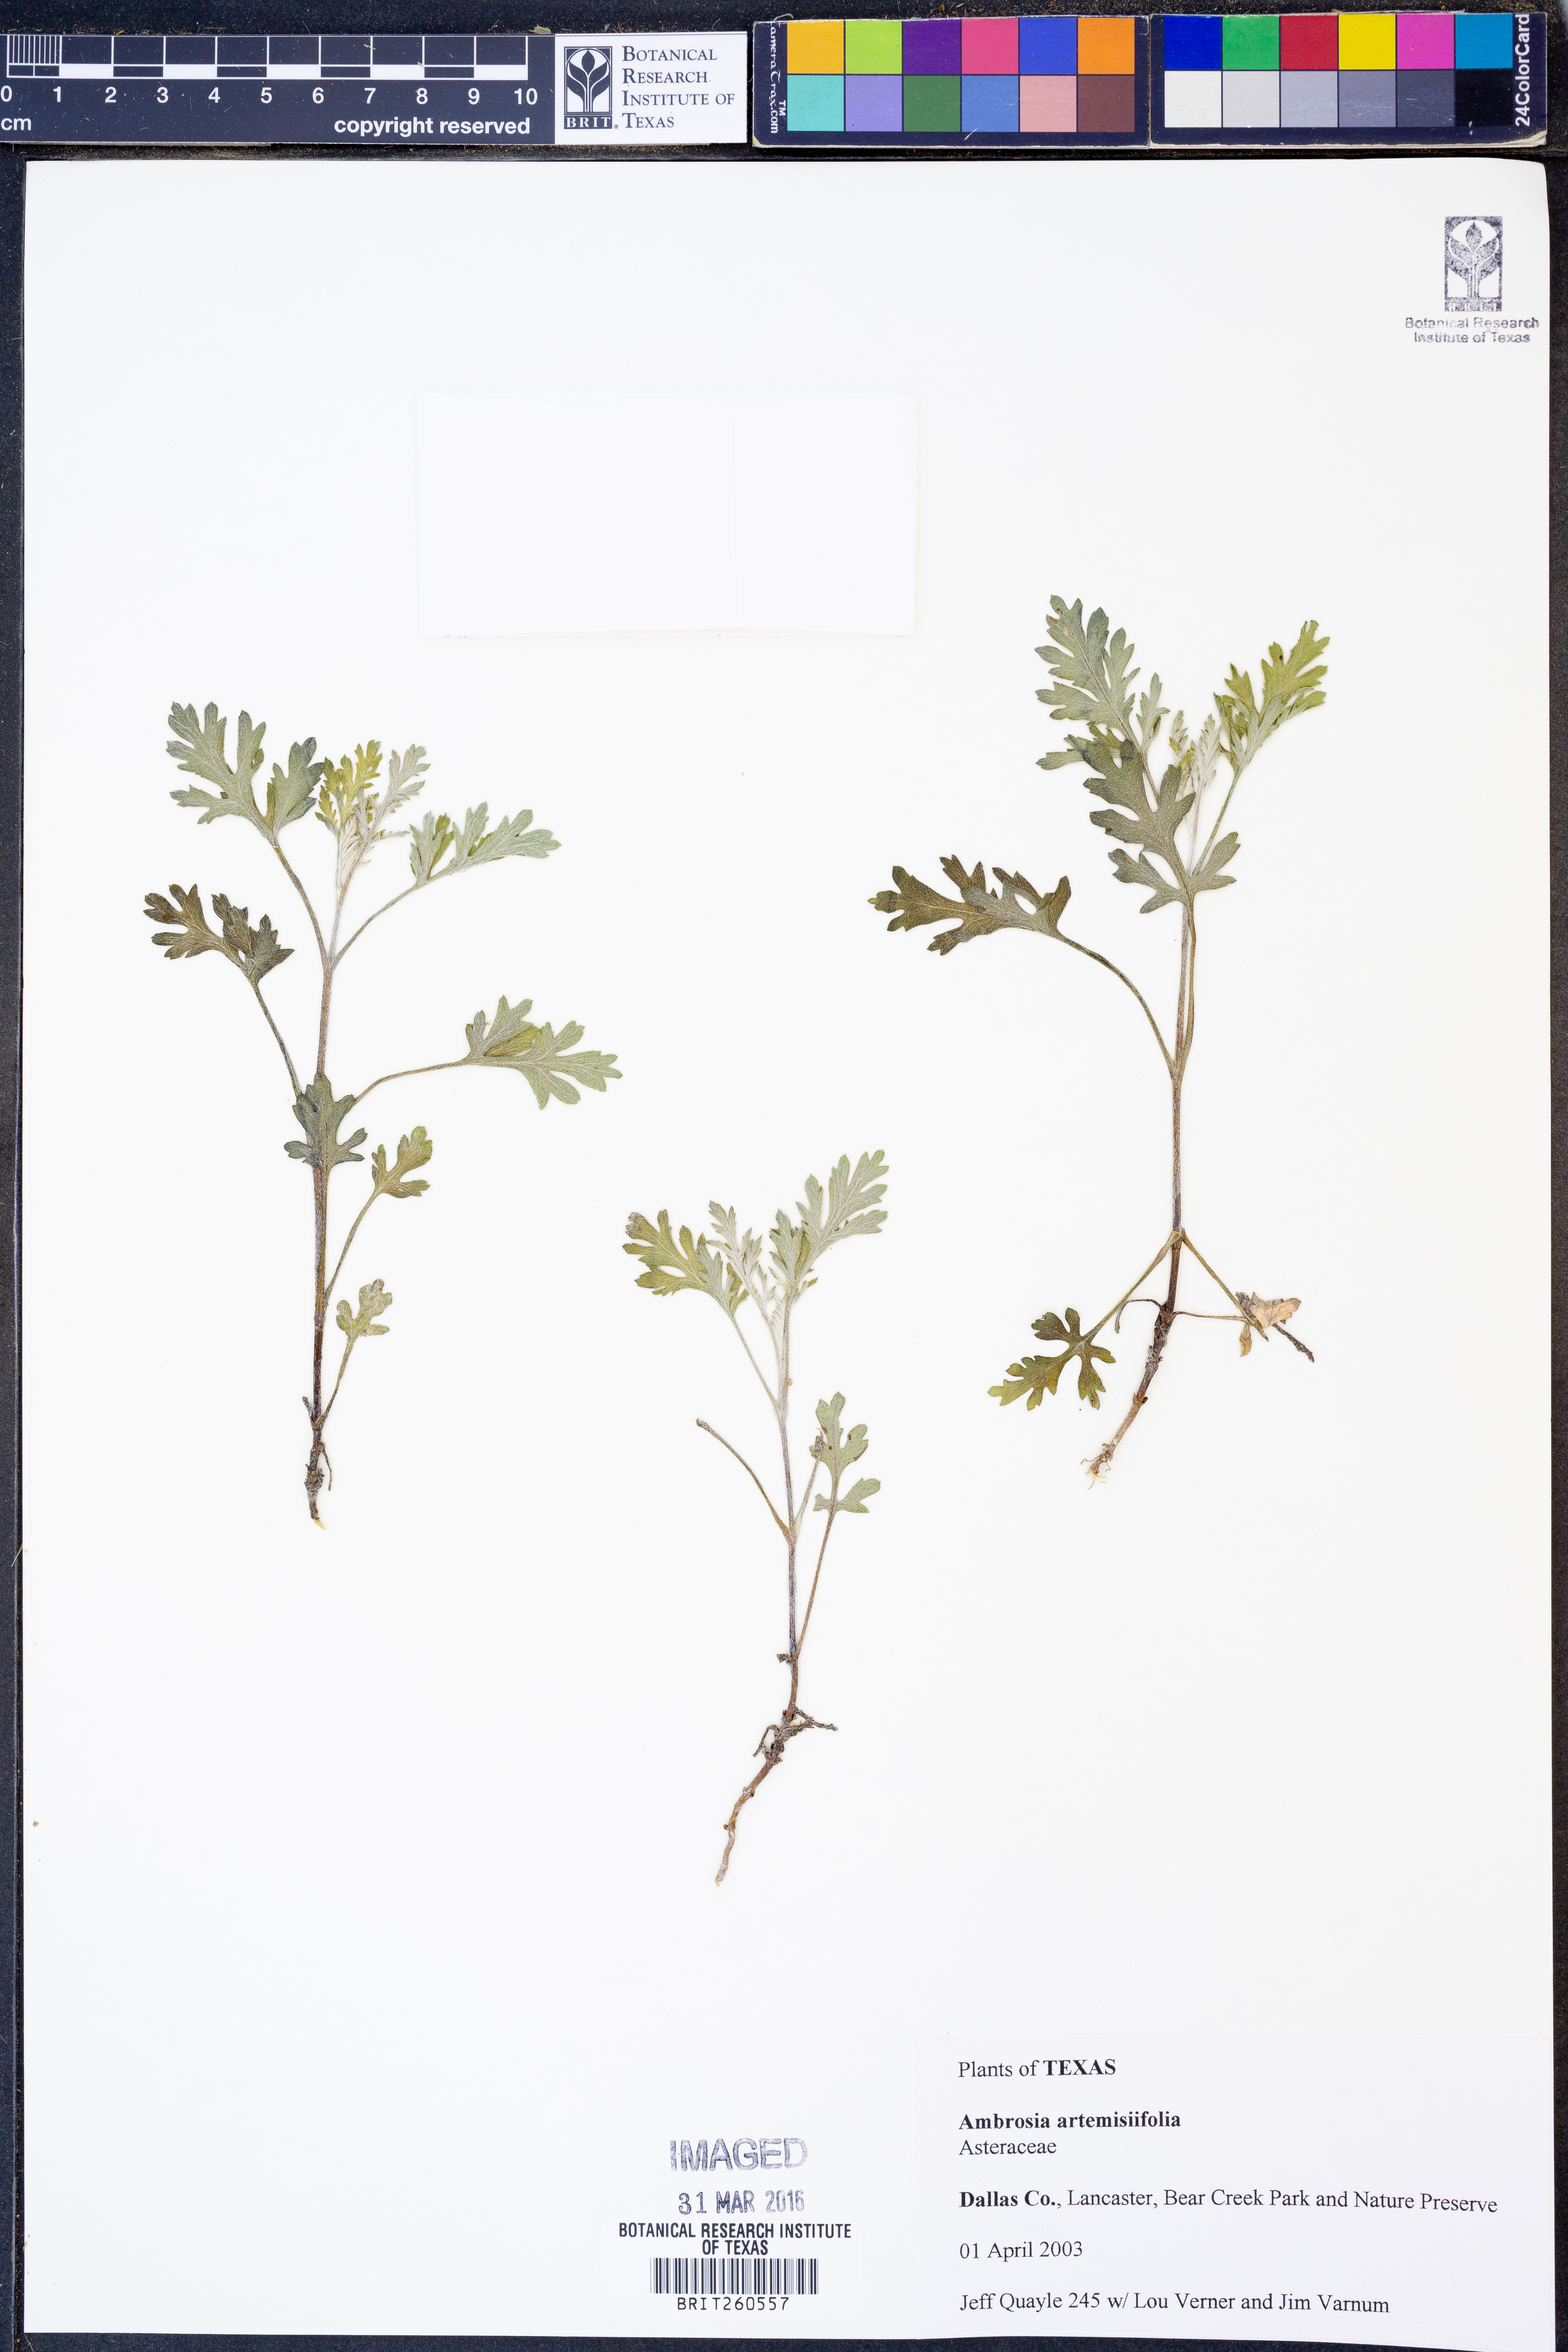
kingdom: Plantae
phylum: Tracheophyta
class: Magnoliopsida
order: Asterales
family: Asteraceae
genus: Ambrosia
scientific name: Ambrosia artemisiifolia
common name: Annual ragweed
